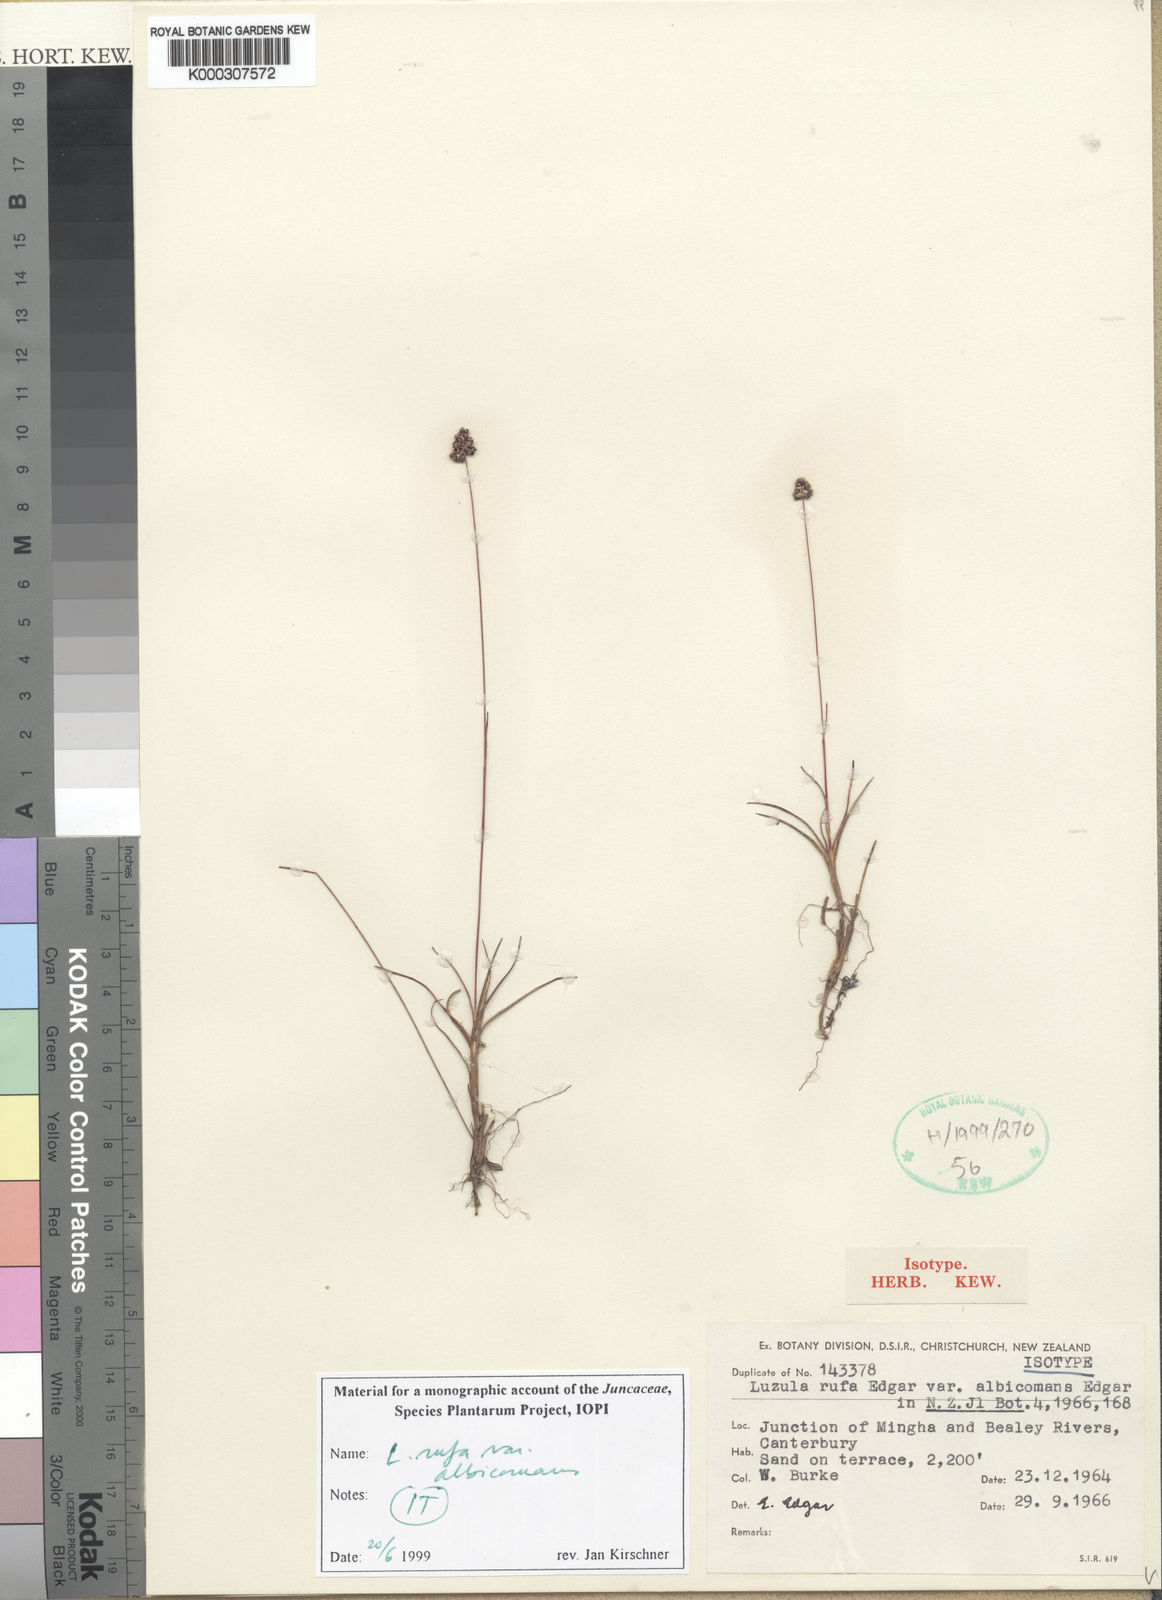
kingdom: Plantae
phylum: Tracheophyta
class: Liliopsida
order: Poales
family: Juncaceae
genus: Luzula
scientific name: Luzula rufa
